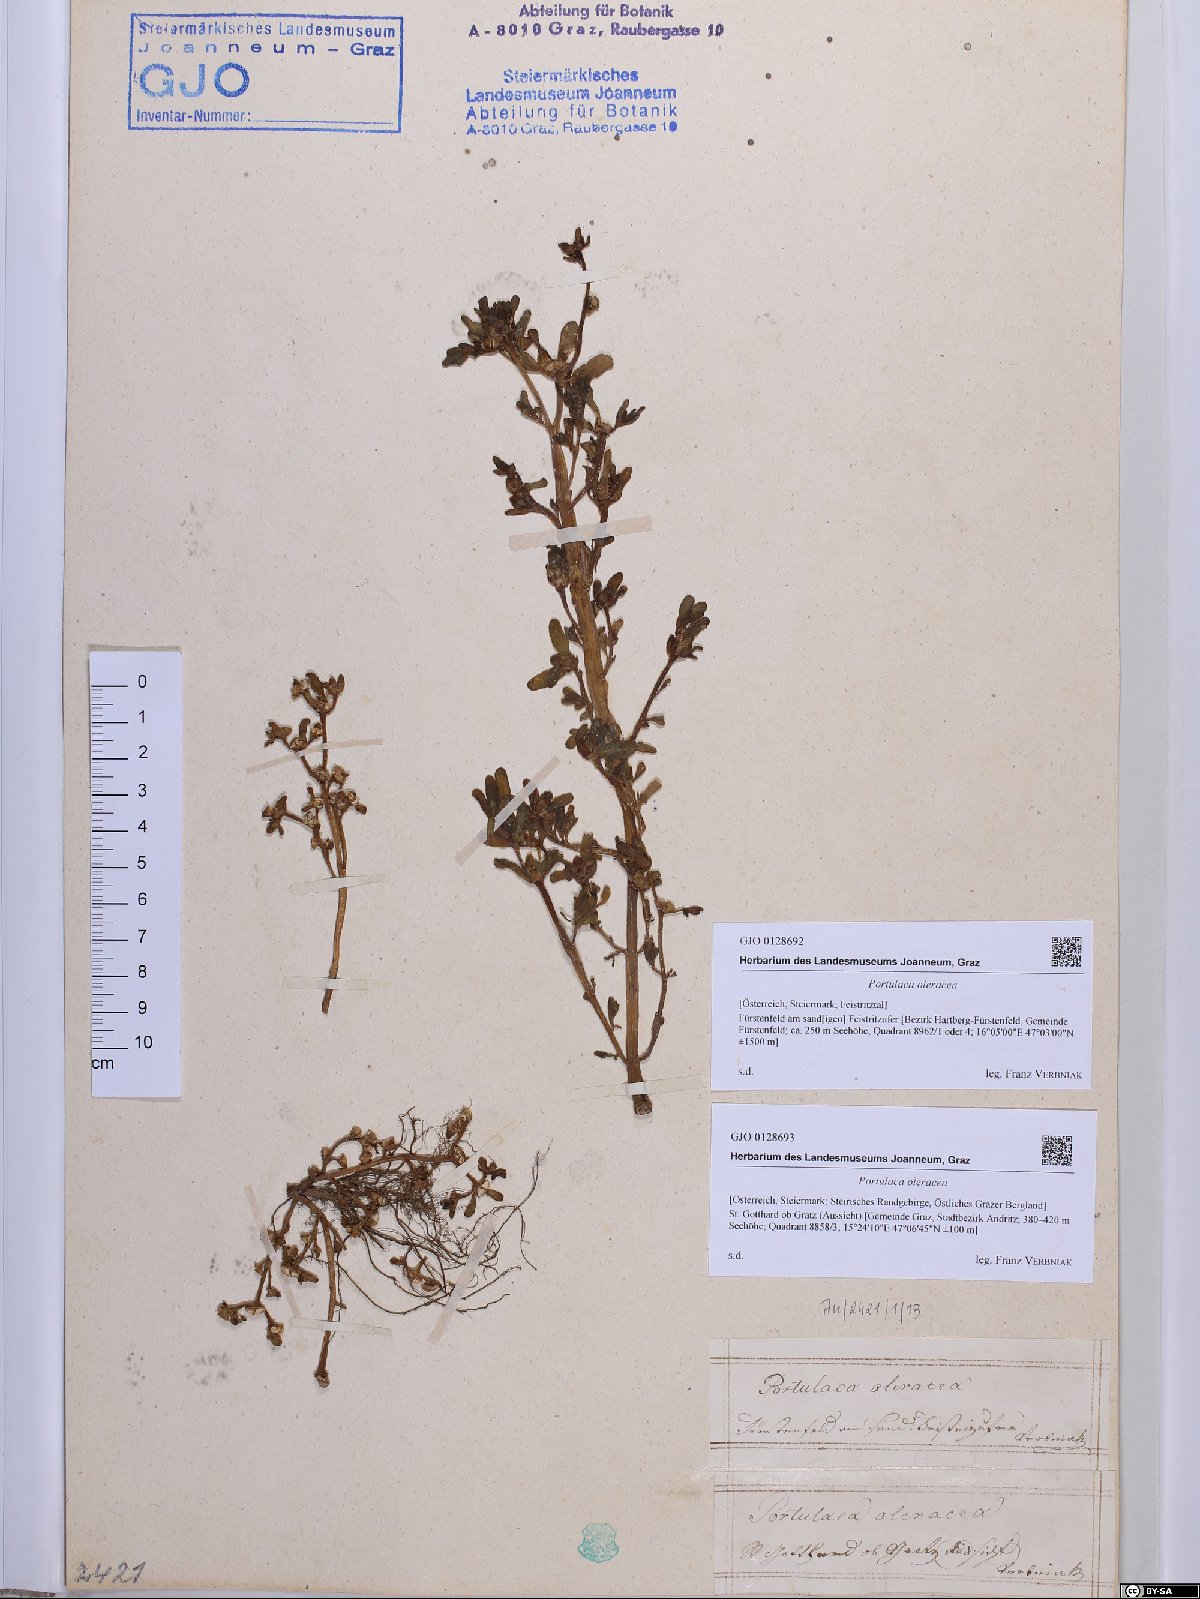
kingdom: Plantae
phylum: Tracheophyta
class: Magnoliopsida
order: Caryophyllales
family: Portulacaceae
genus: Portulaca
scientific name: Portulaca oleracea
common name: Common purslane
